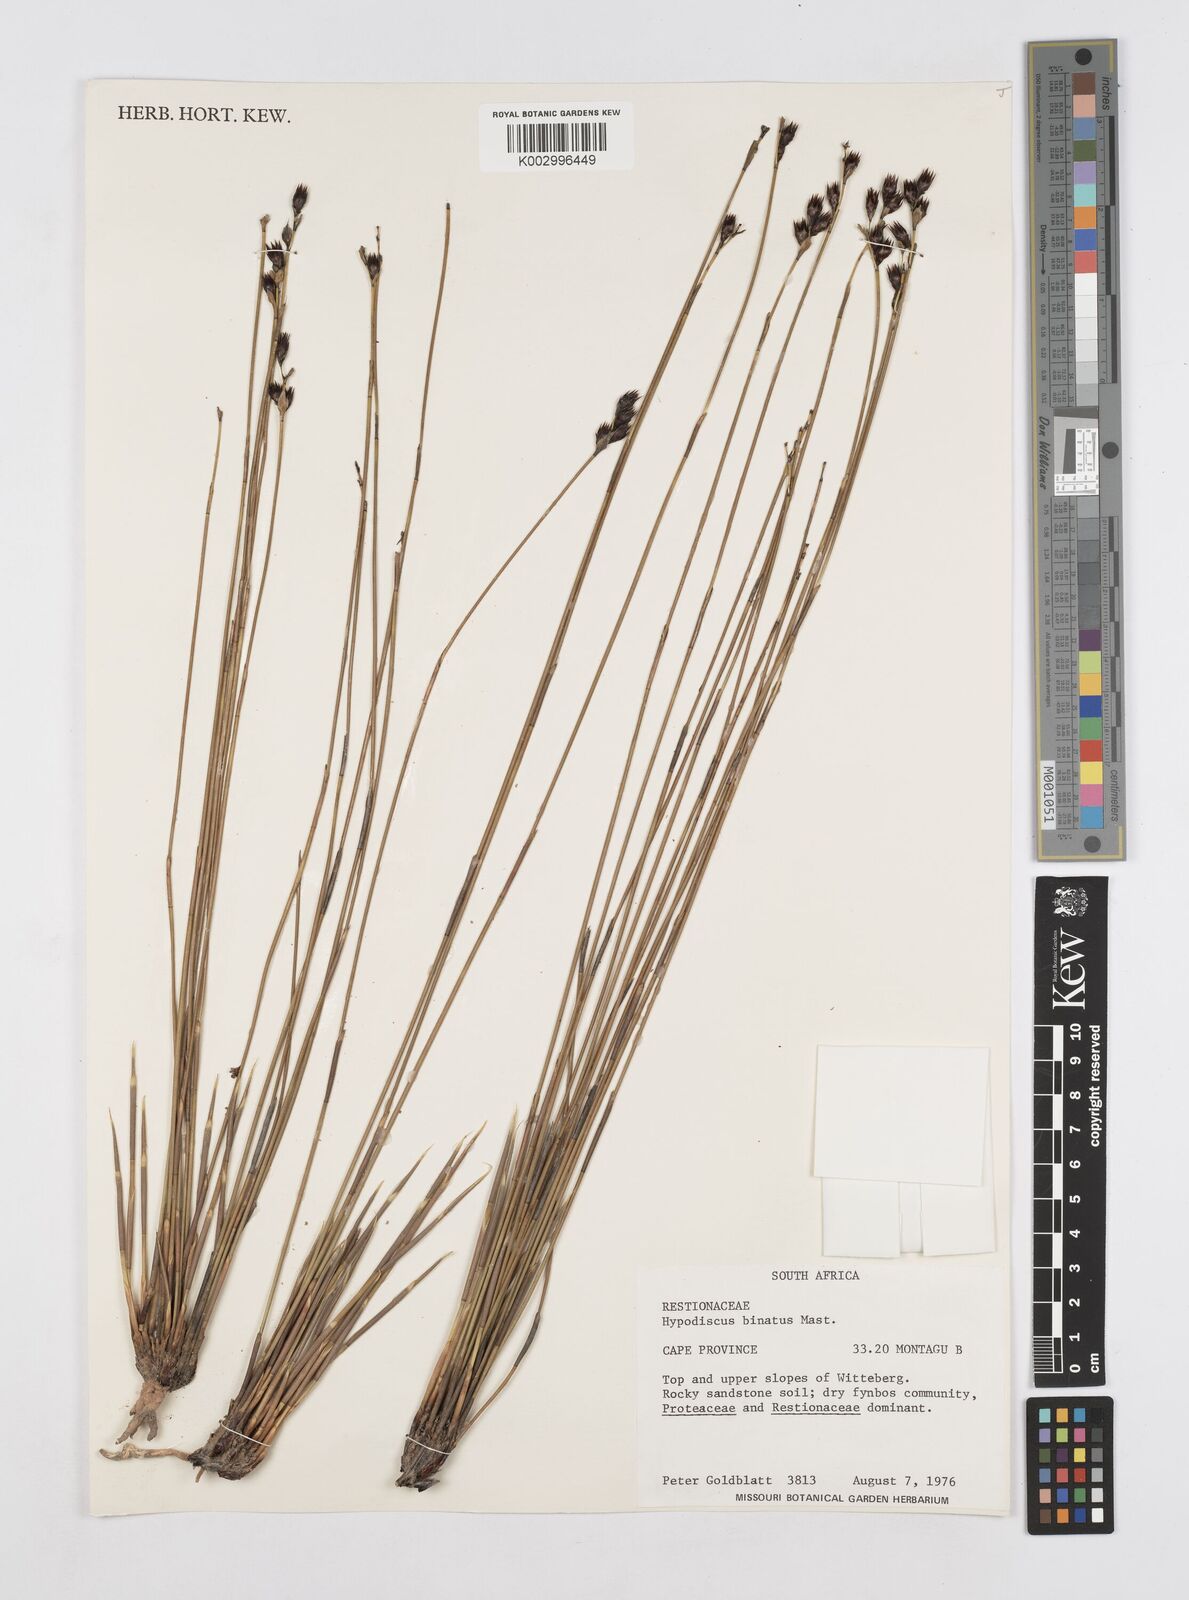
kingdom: Plantae
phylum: Tracheophyta
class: Liliopsida
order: Poales
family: Restionaceae
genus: Hypodiscus
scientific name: Hypodiscus laevigatus
